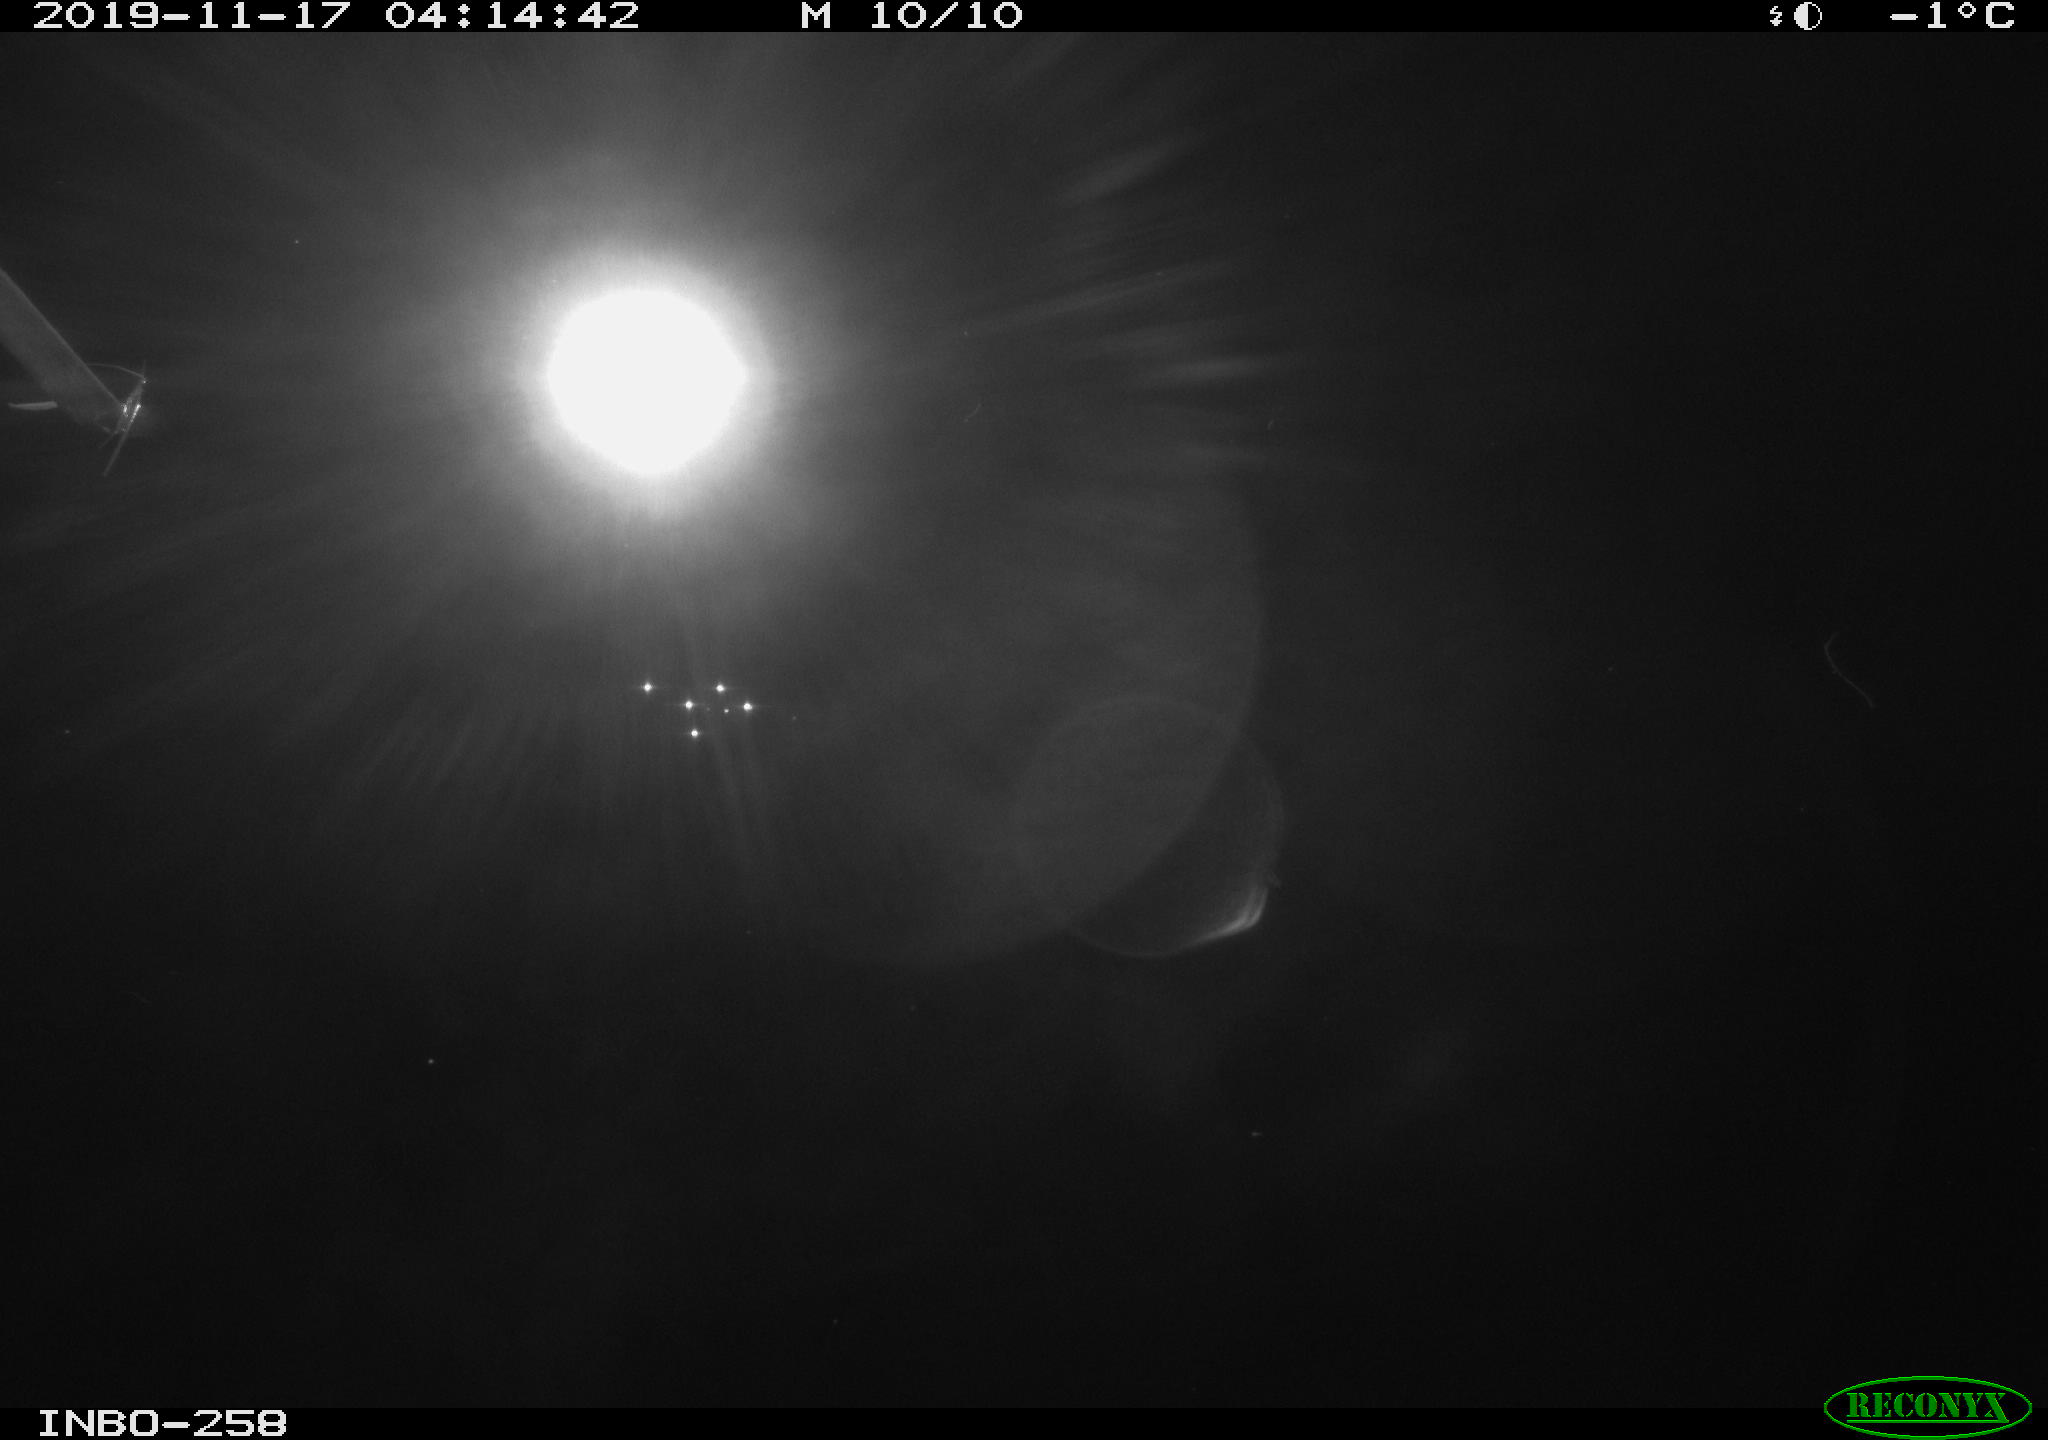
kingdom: Animalia
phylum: Chordata
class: Aves
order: Anseriformes
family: Anatidae
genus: Anas
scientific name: Anas platyrhynchos
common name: Mallard
